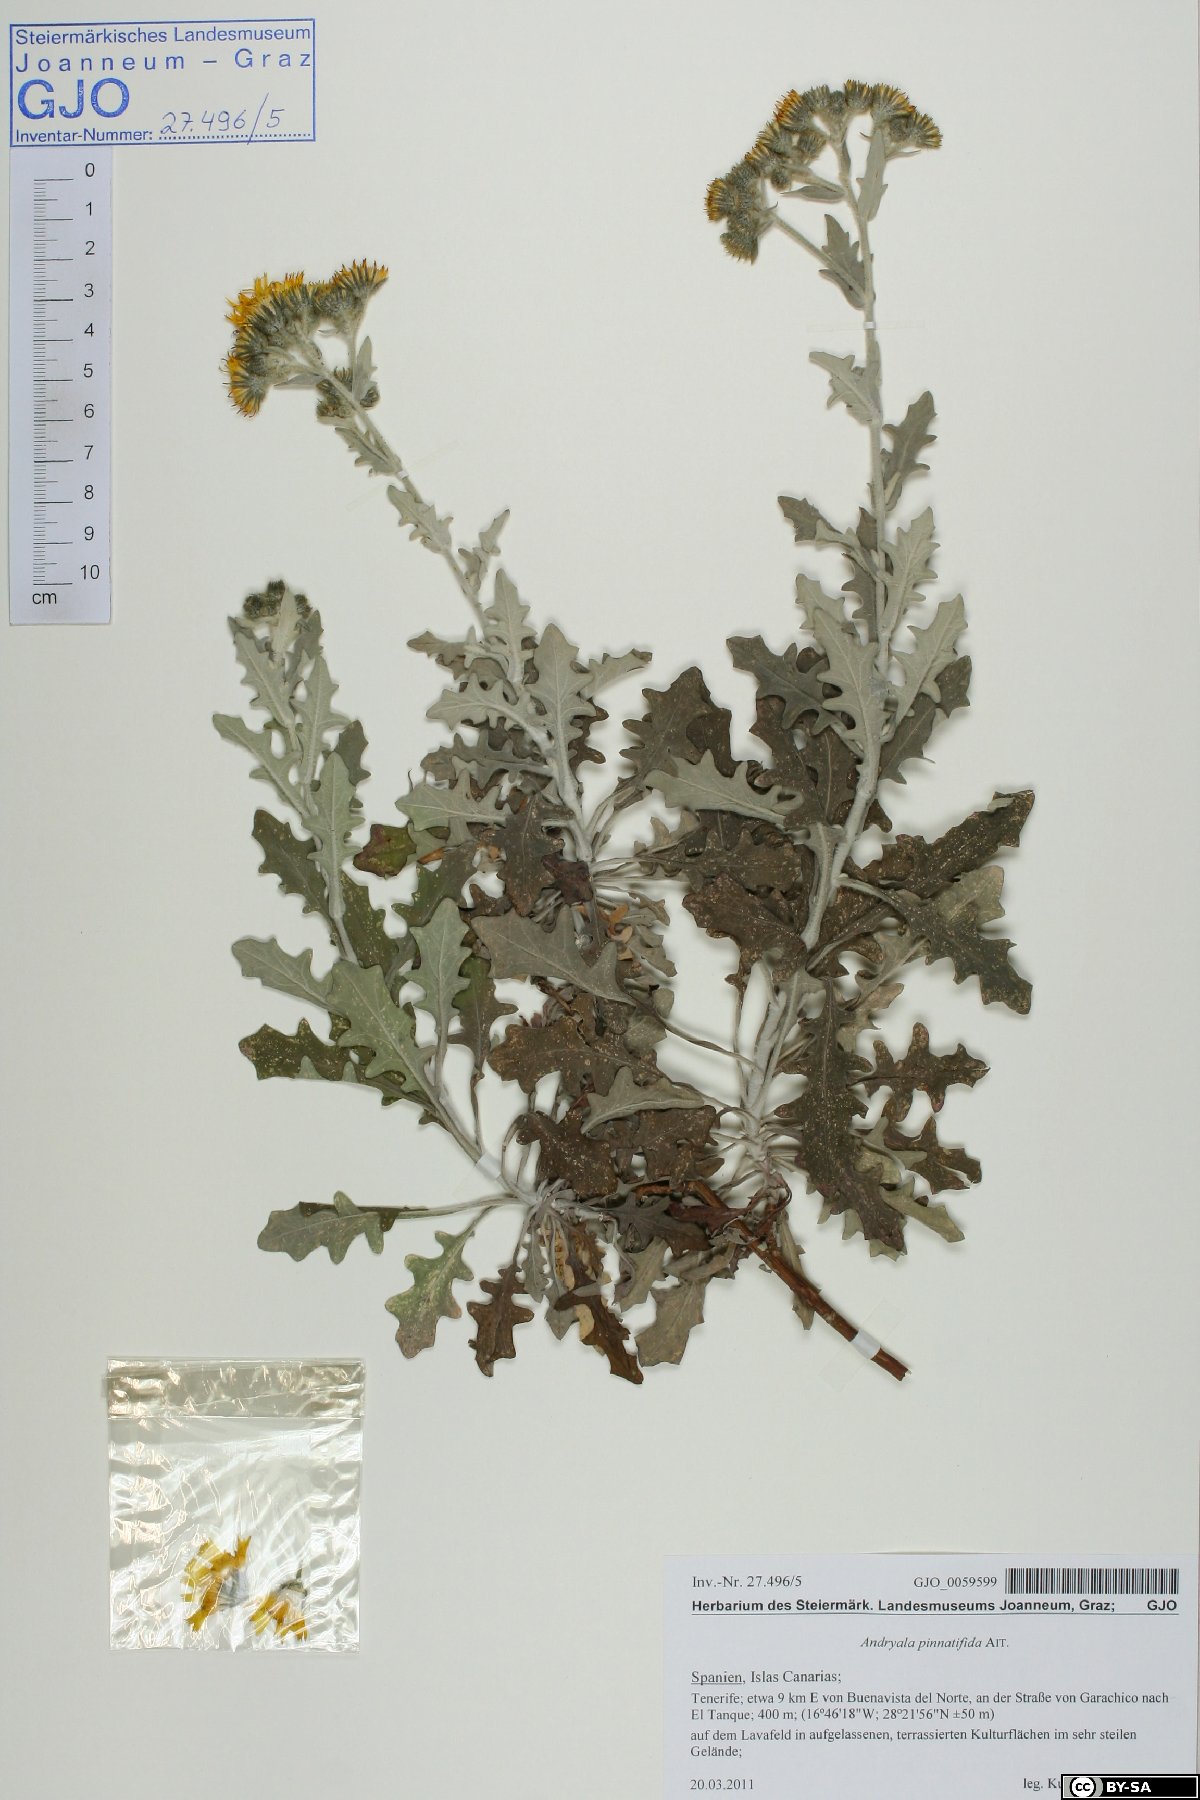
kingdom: Plantae
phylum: Tracheophyta
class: Magnoliopsida
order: Asterales
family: Asteraceae
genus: Andryala
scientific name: Andryala pinnatifida
